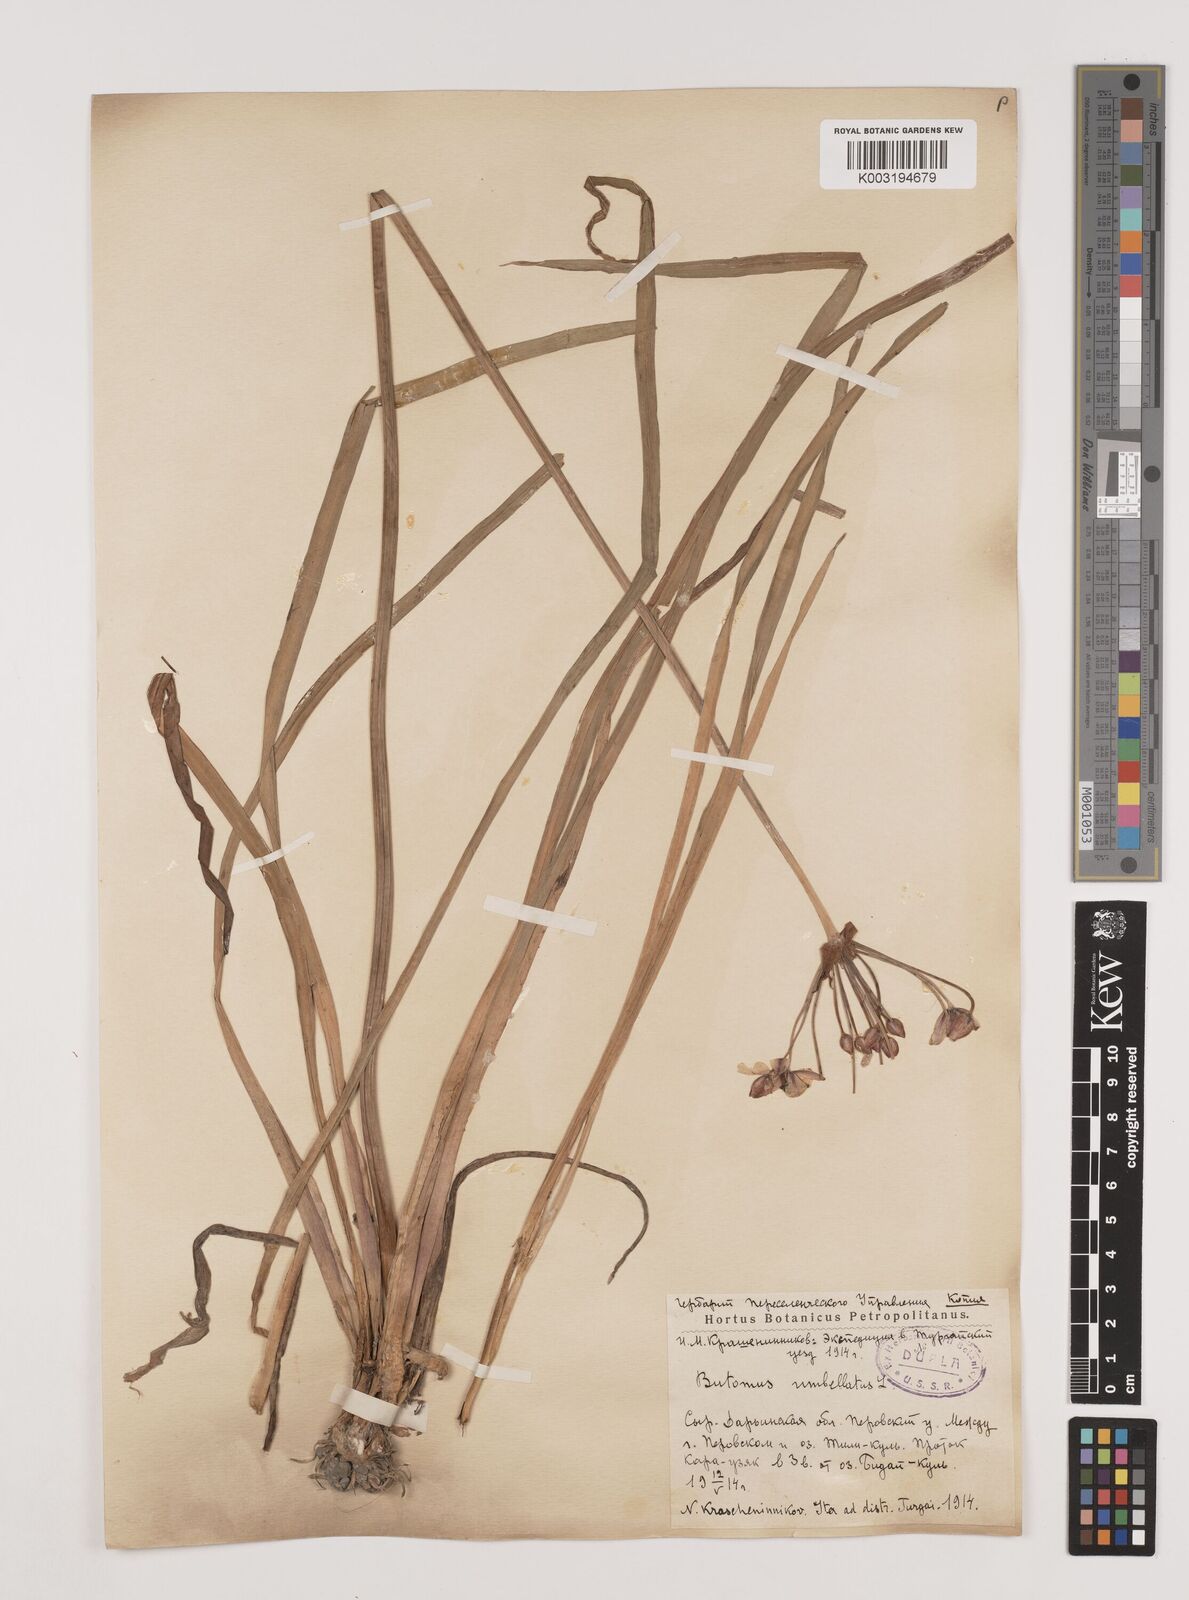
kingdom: Plantae
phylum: Tracheophyta
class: Liliopsida
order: Alismatales
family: Butomaceae
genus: Butomus
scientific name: Butomus umbellatus
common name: Flowering-rush
